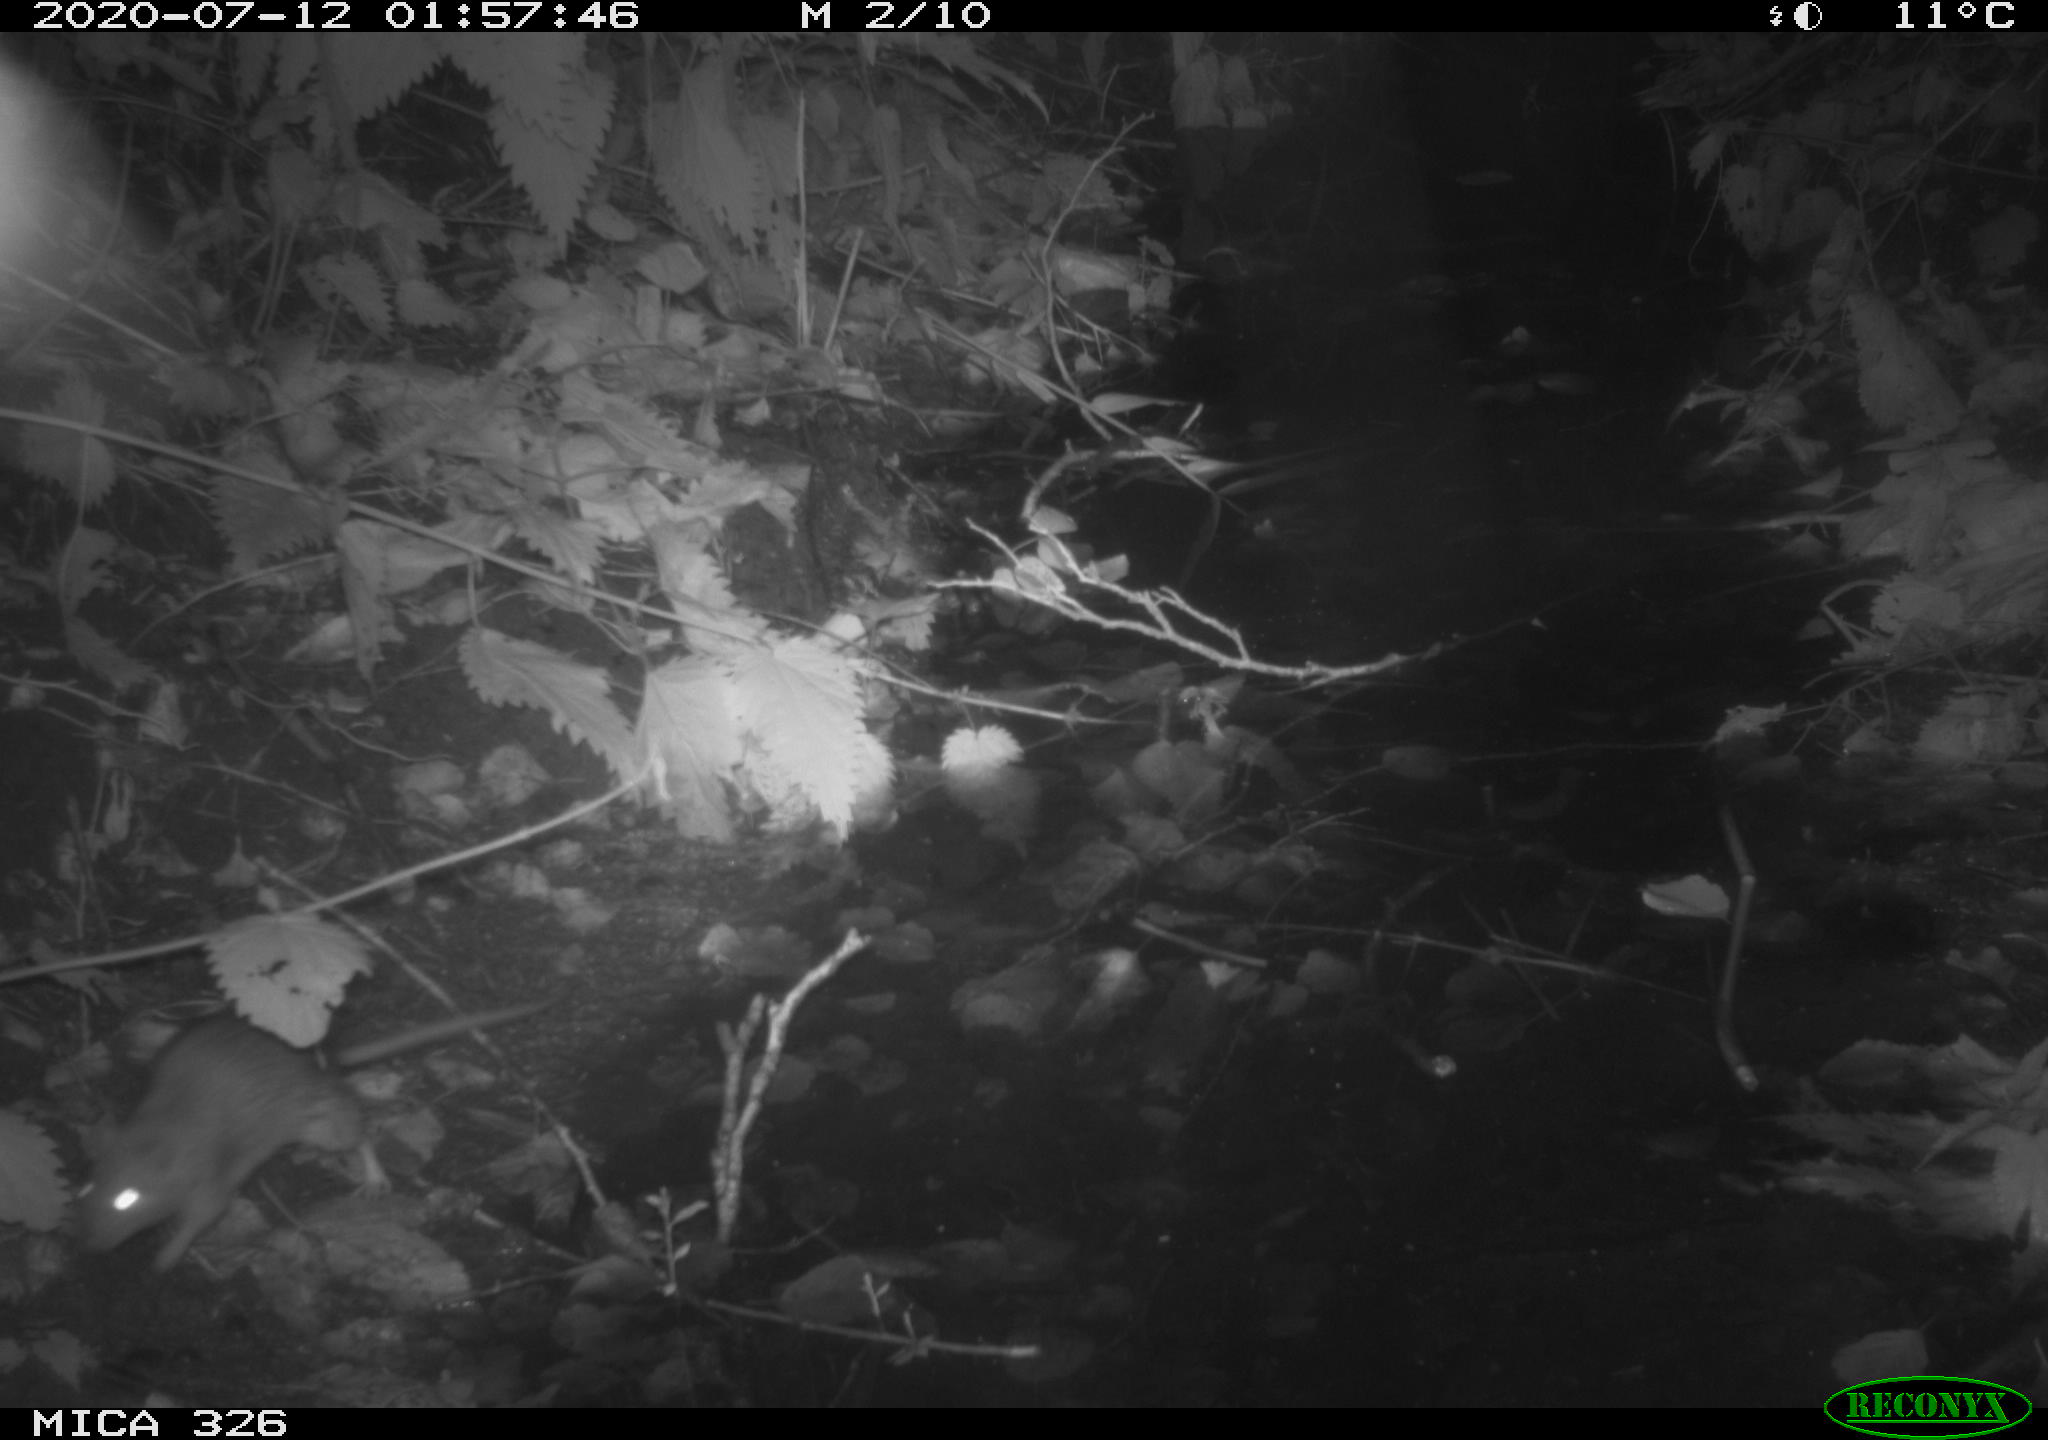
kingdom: Animalia
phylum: Chordata
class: Mammalia
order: Rodentia
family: Muridae
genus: Rattus
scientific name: Rattus norvegicus
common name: Brown rat
